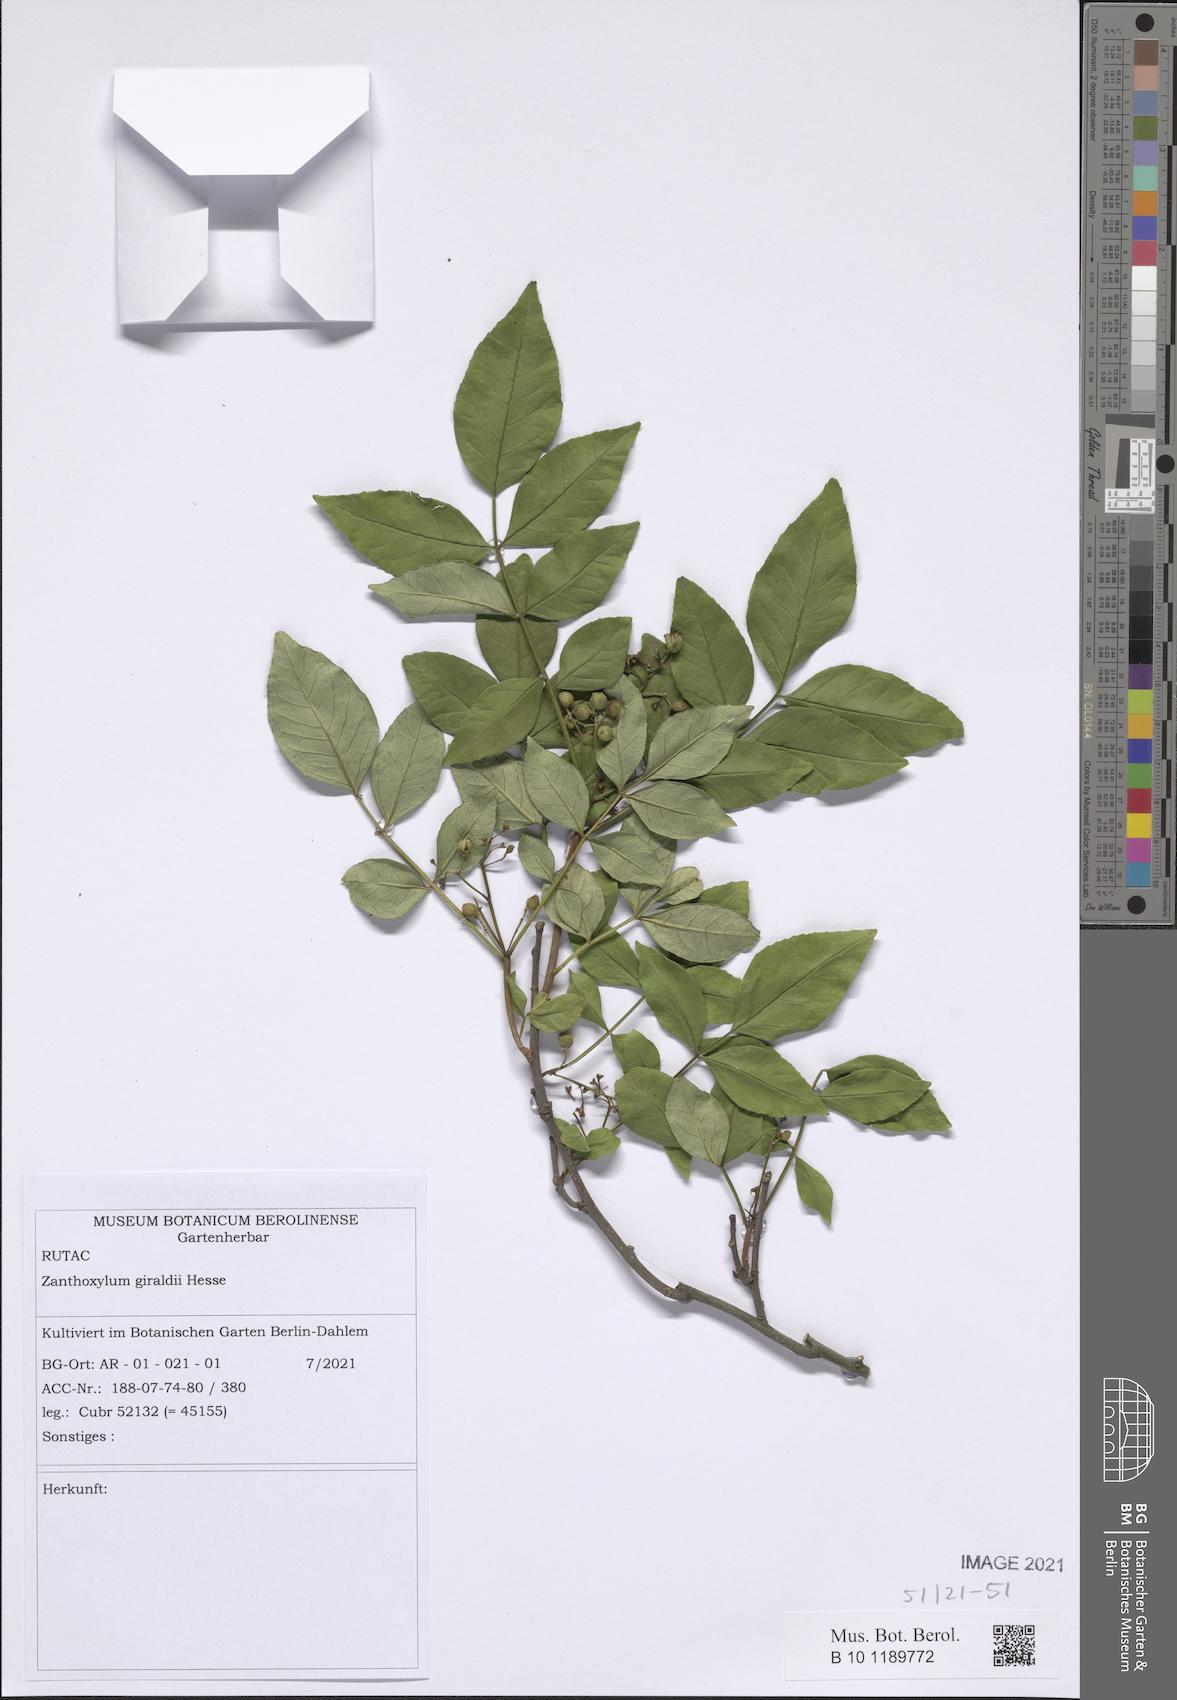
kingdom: Plantae
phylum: Tracheophyta
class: Magnoliopsida
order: Sapindales
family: Rutaceae
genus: Zanthoxylum
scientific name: Zanthoxylum
